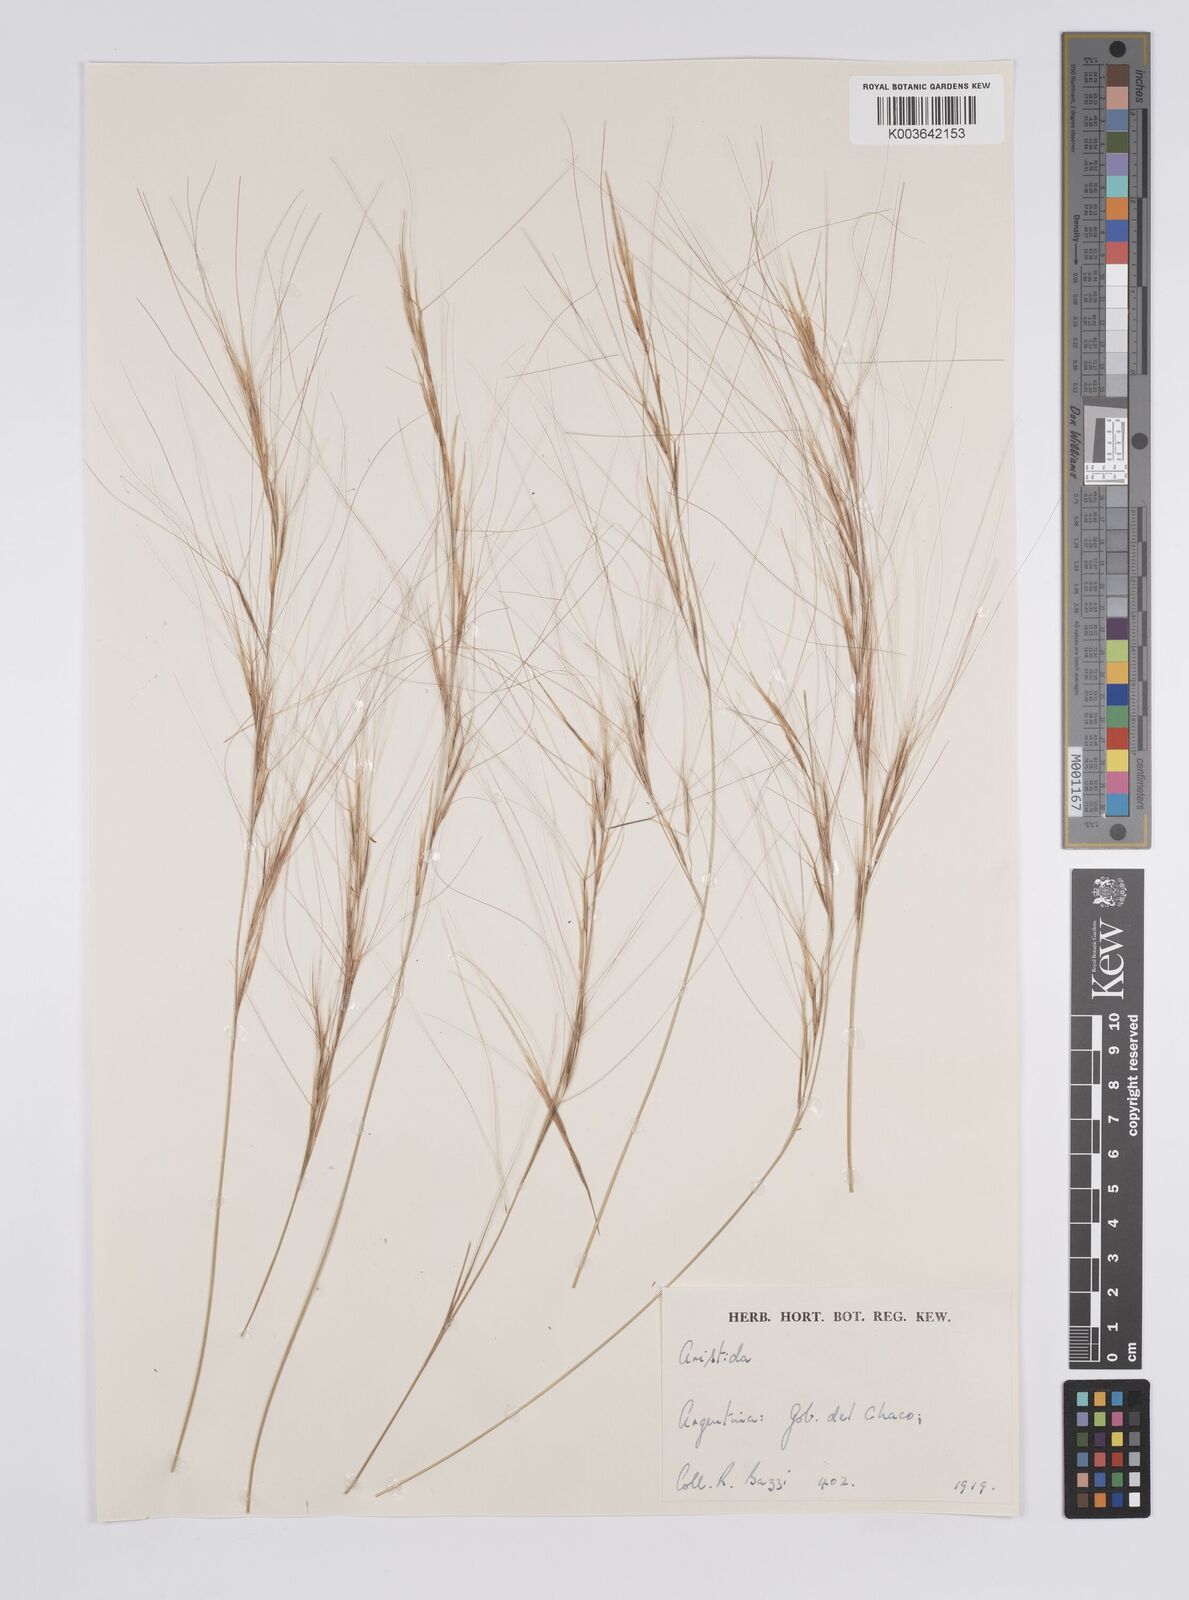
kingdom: Plantae
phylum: Tracheophyta
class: Liliopsida
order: Poales
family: Poaceae
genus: Aristida
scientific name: Aristida
